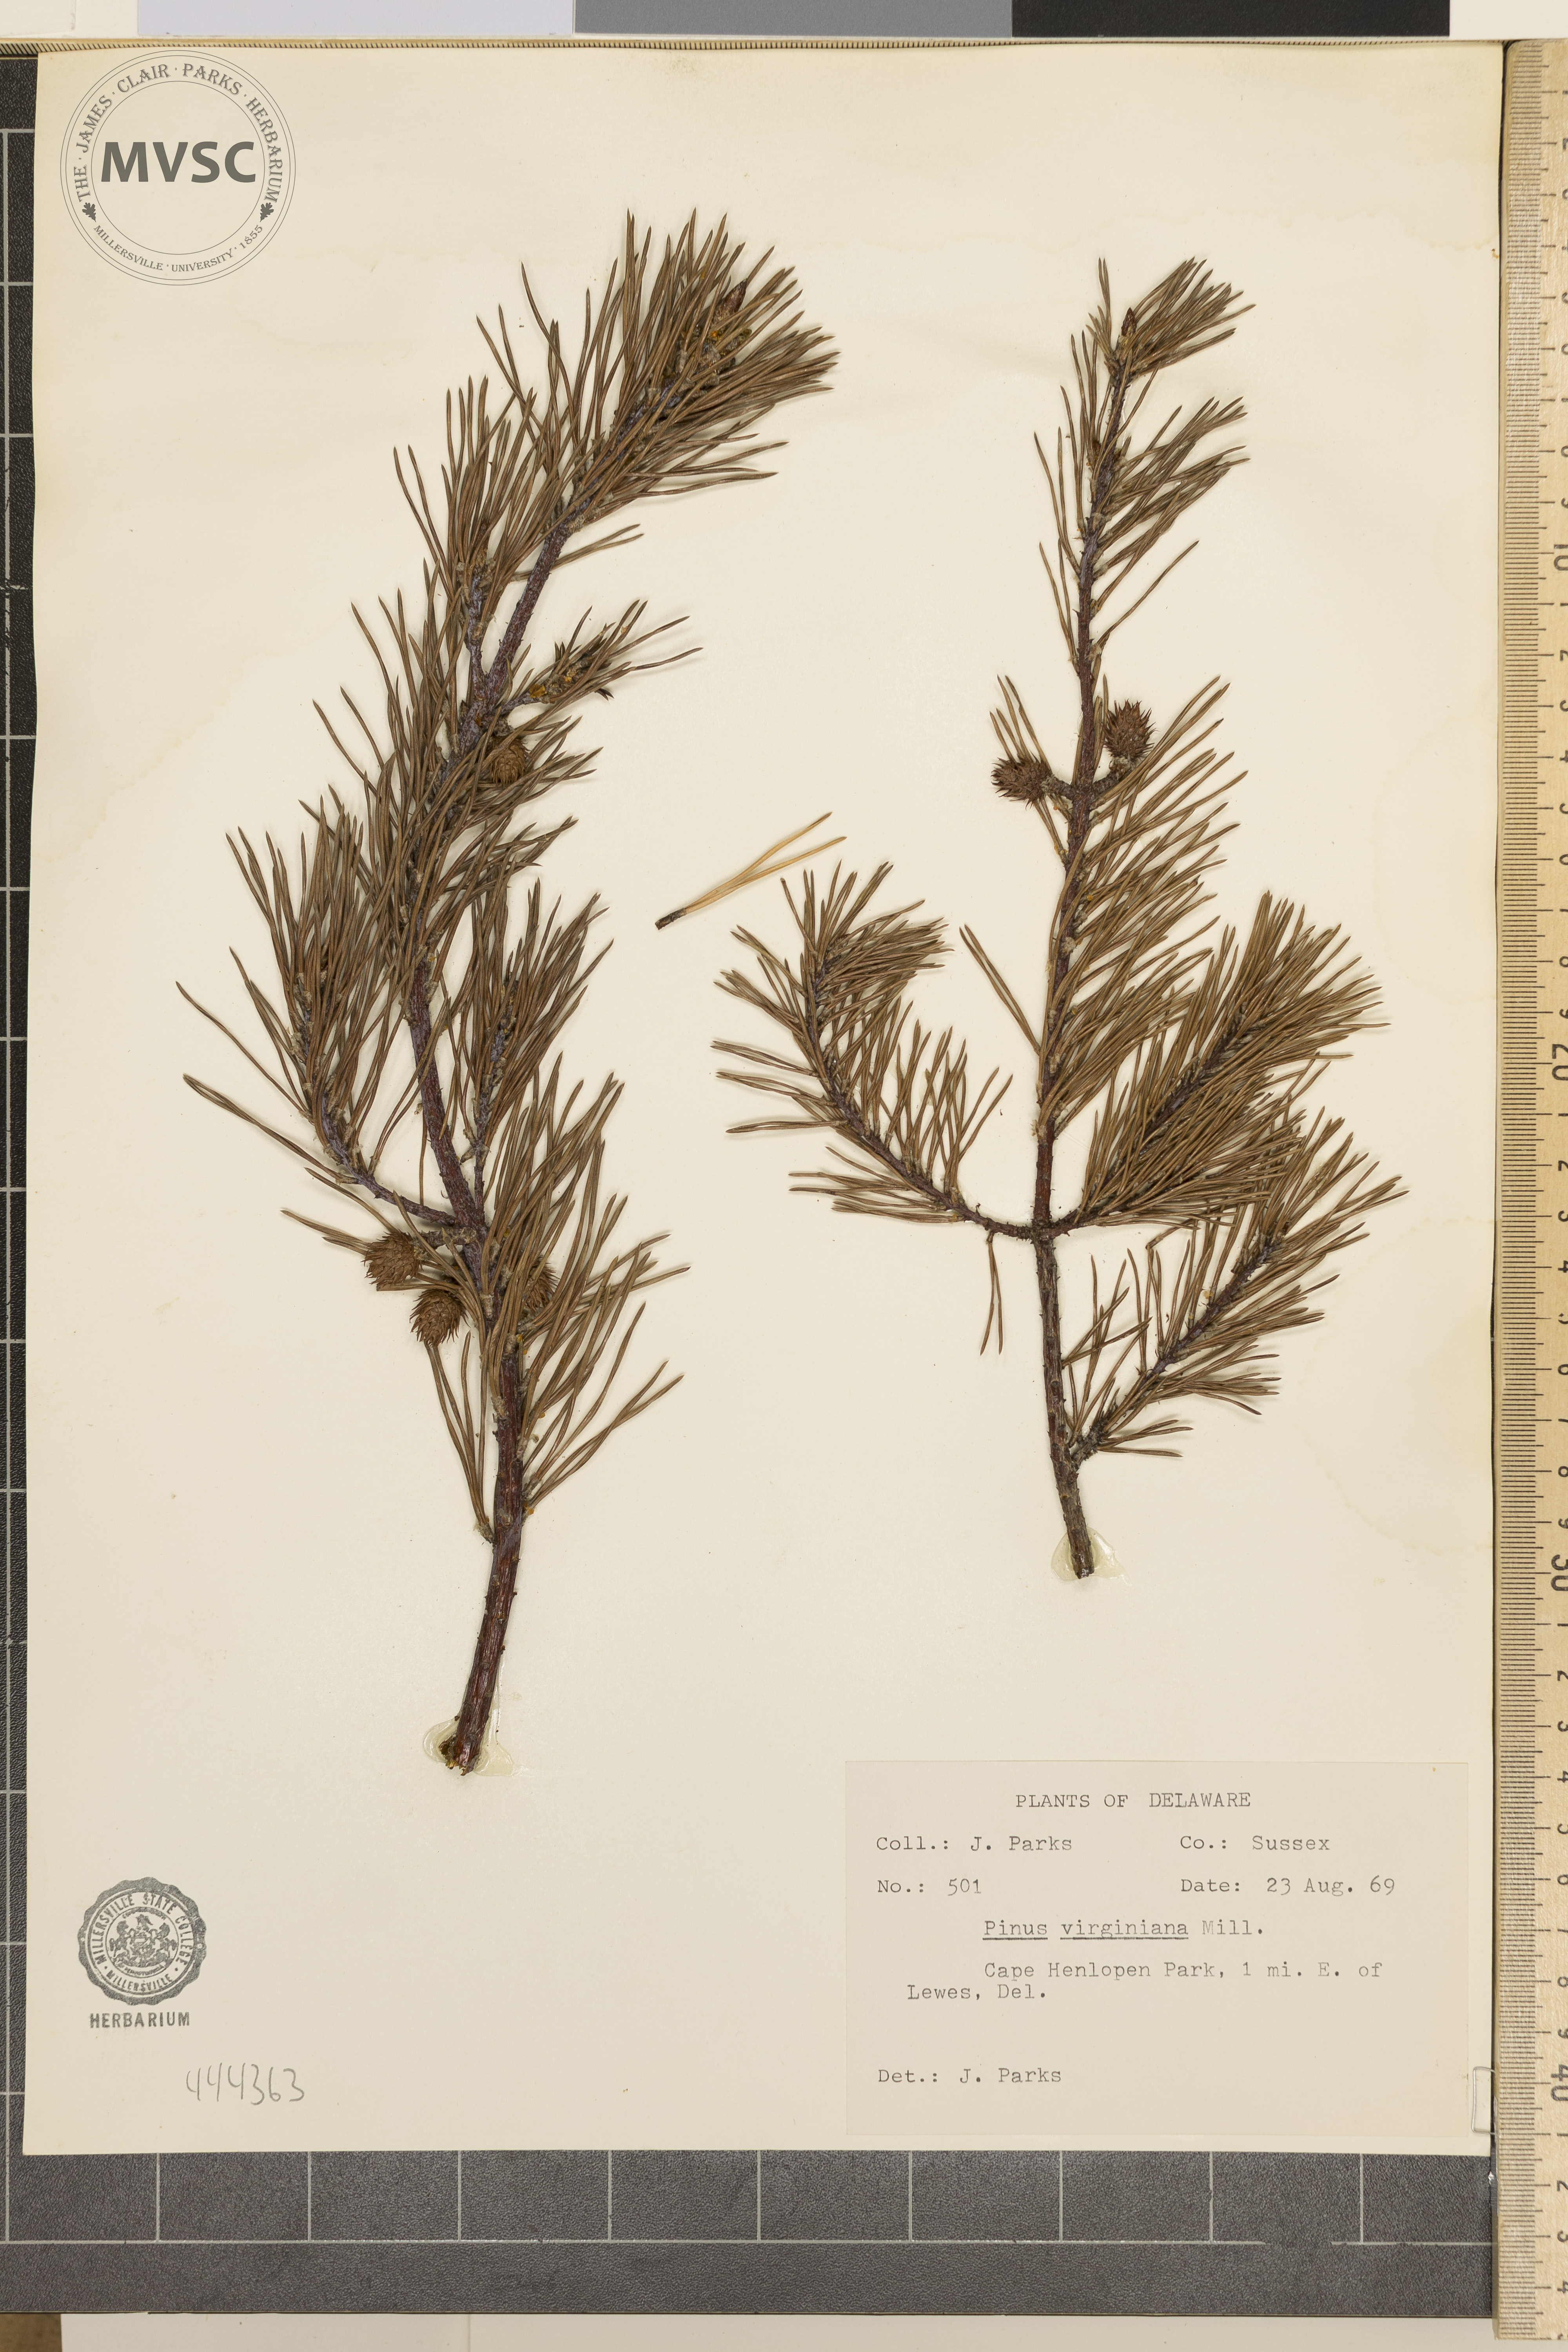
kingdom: Plantae
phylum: Tracheophyta
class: Pinopsida
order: Pinales
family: Pinaceae
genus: Pinus
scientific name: Pinus virginiana
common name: Scrub pine
